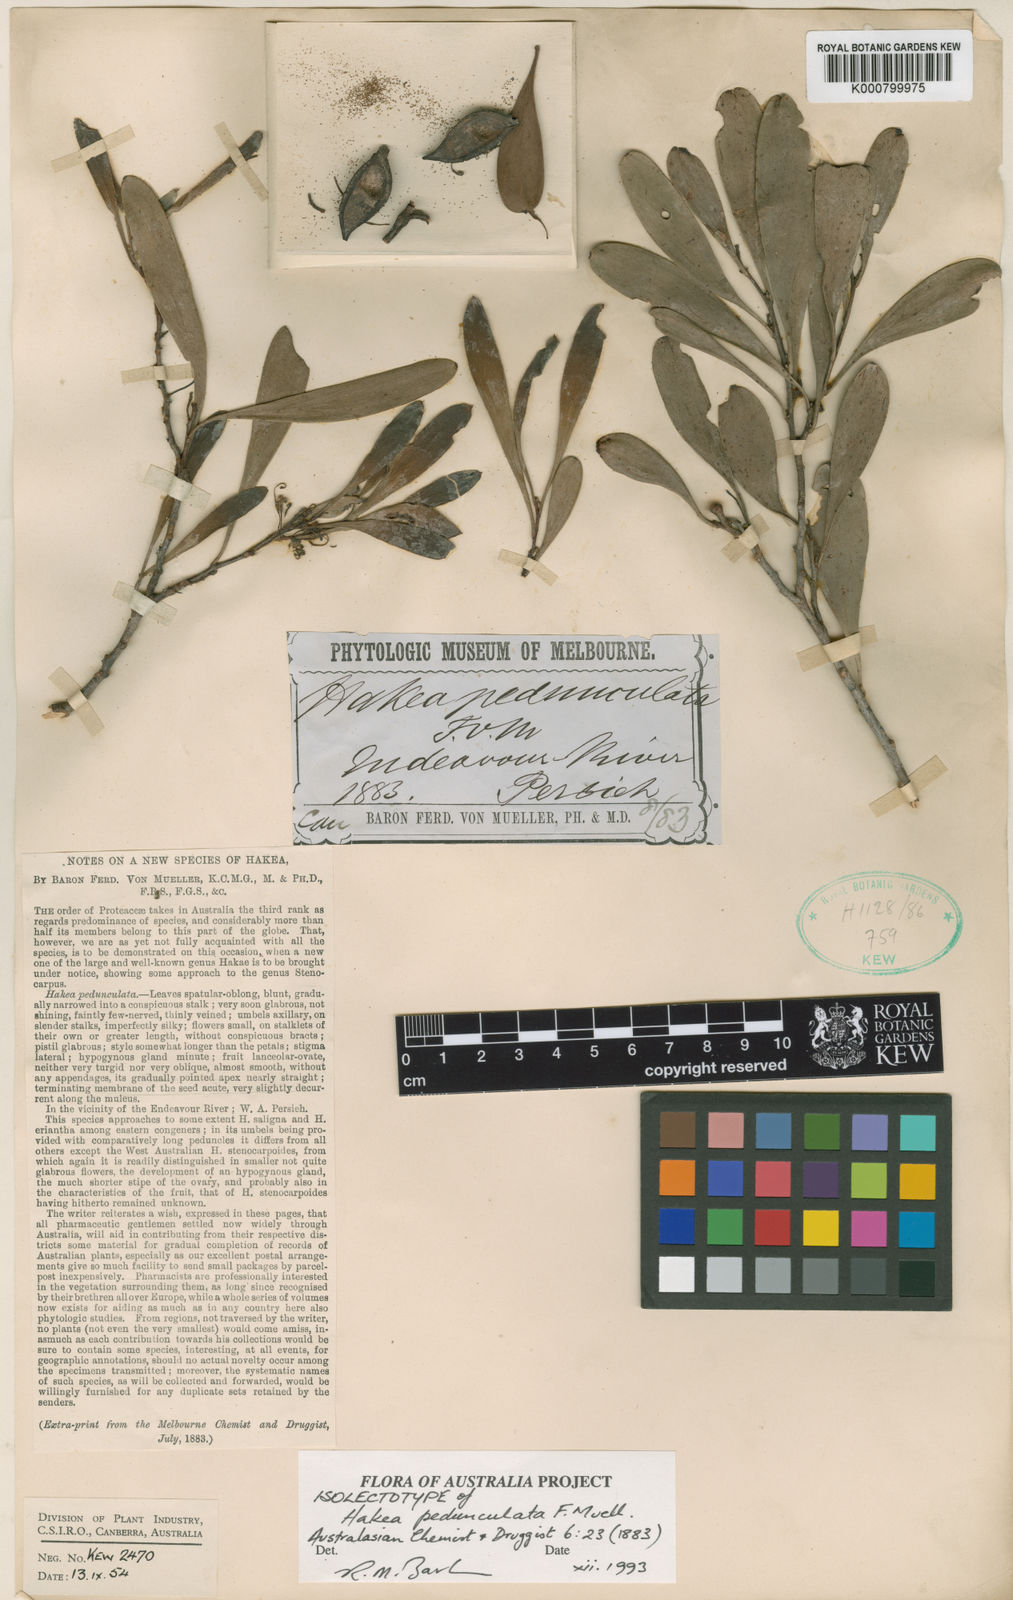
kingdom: Plantae
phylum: Tracheophyta
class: Magnoliopsida
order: Proteales
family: Proteaceae
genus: Hakea
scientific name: Hakea pedunculata
